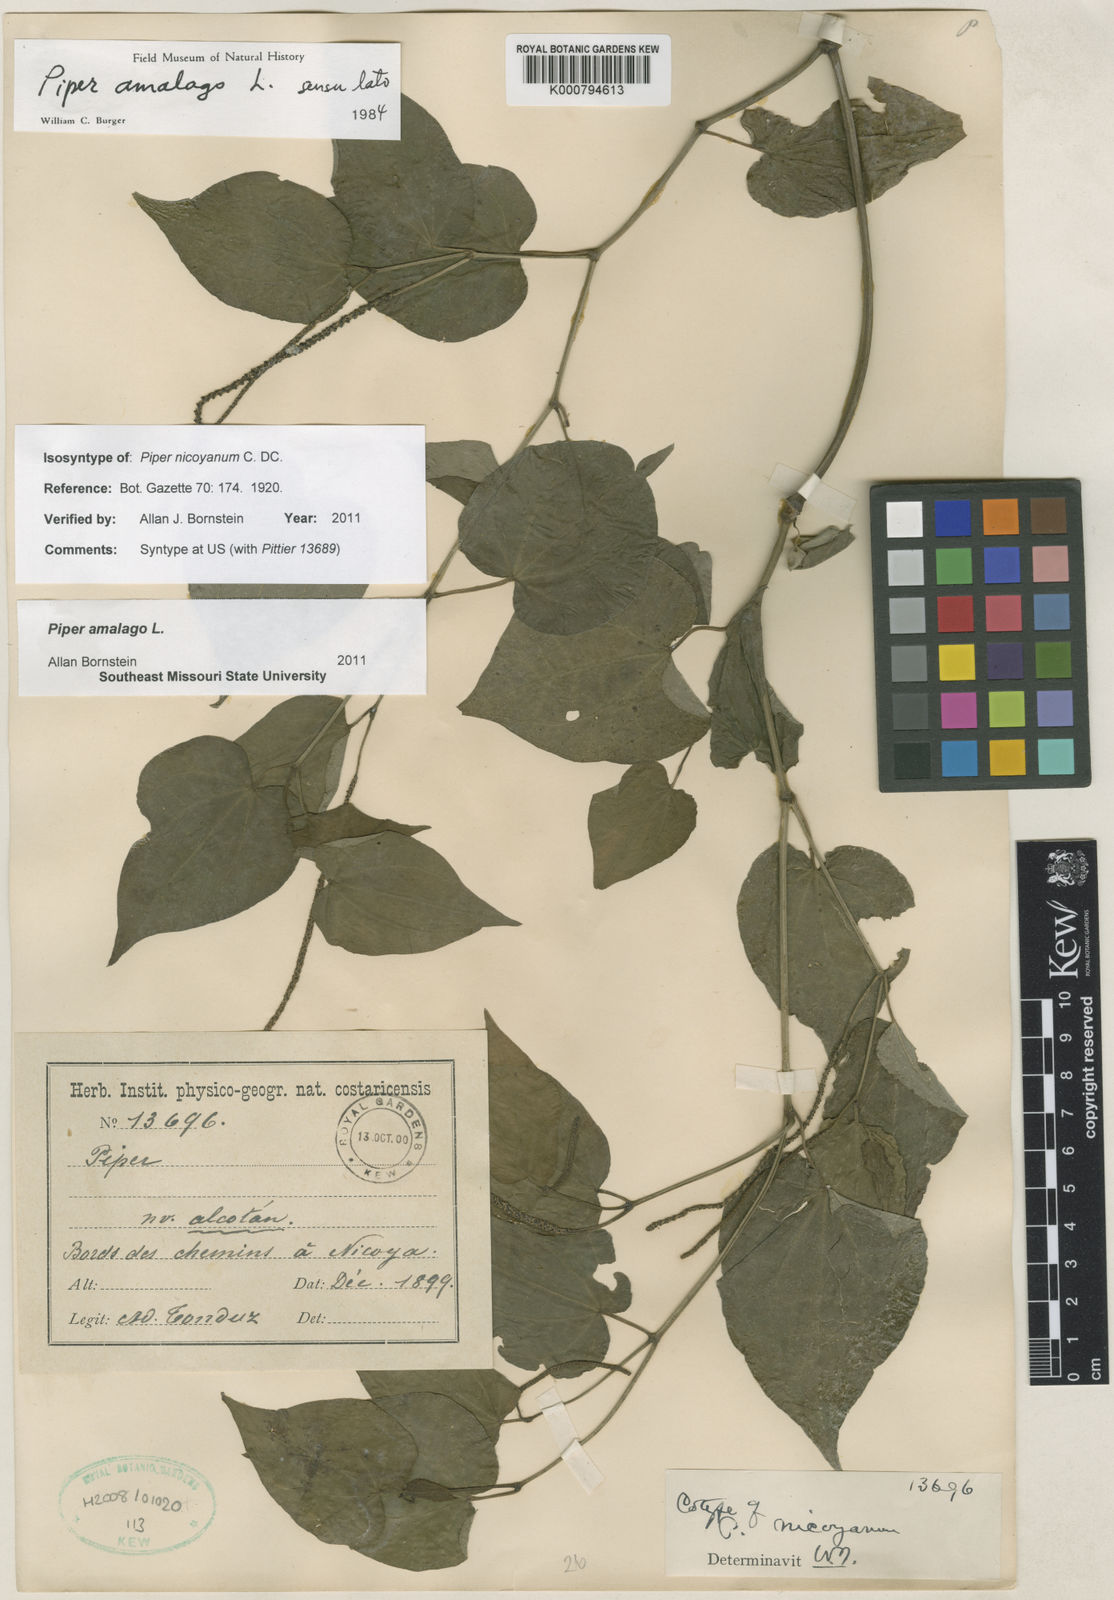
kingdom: Plantae
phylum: Tracheophyta
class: Magnoliopsida
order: Piperales
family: Piperaceae
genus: Piper
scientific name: Piper amalago
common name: Pepper-elder
